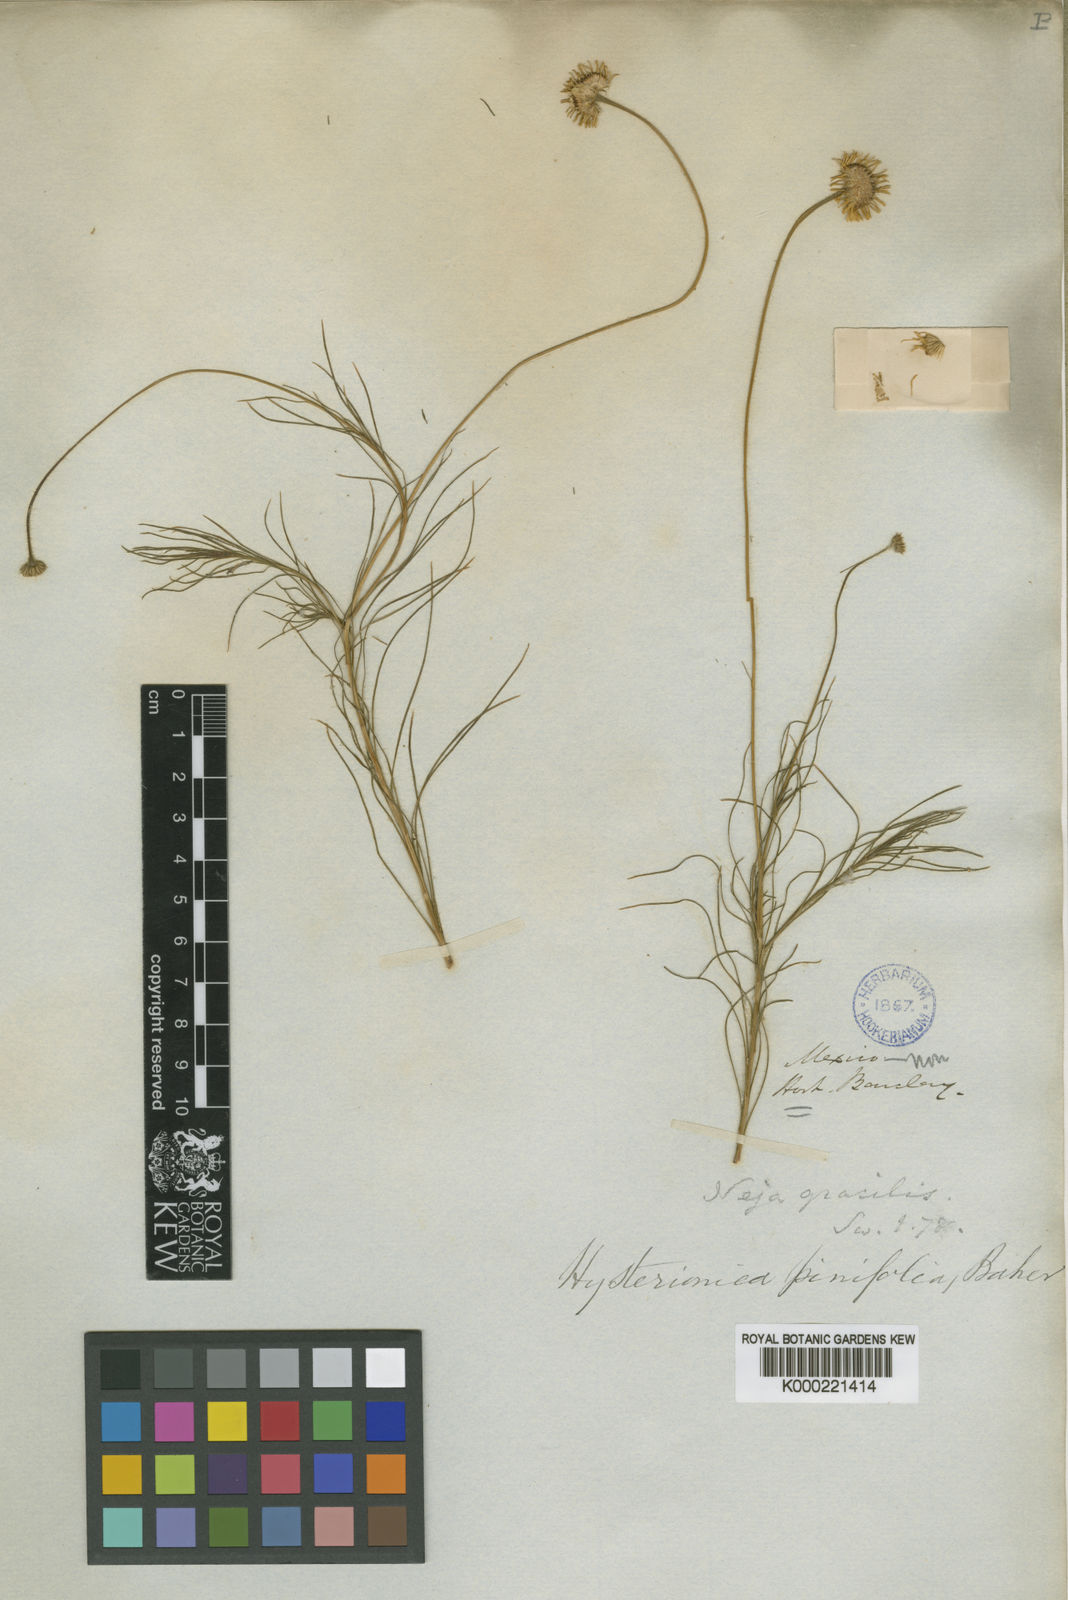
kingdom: Plantae
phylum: Tracheophyta
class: Magnoliopsida
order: Asterales
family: Asteraceae
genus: Neja
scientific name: Neja pinifolia
